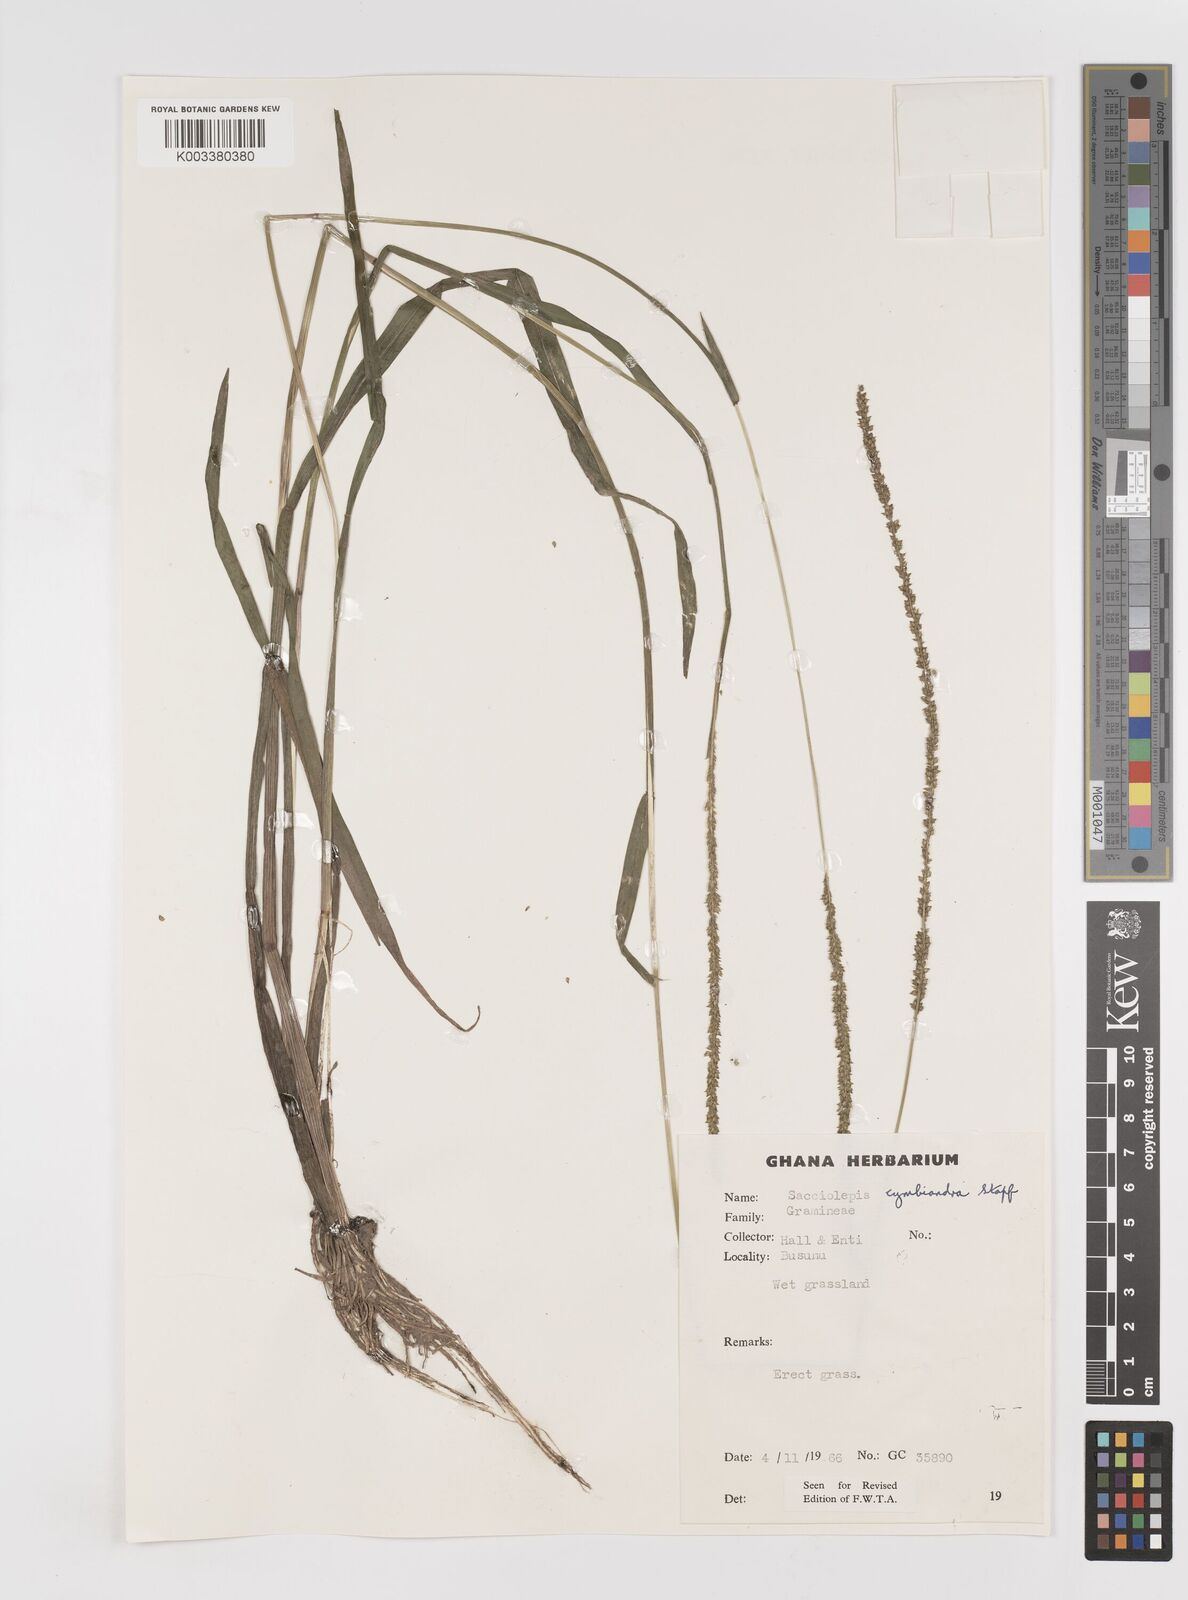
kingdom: Plantae
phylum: Tracheophyta
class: Liliopsida
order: Poales
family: Poaceae
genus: Sacciolepis
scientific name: Sacciolepis cymbiandra
